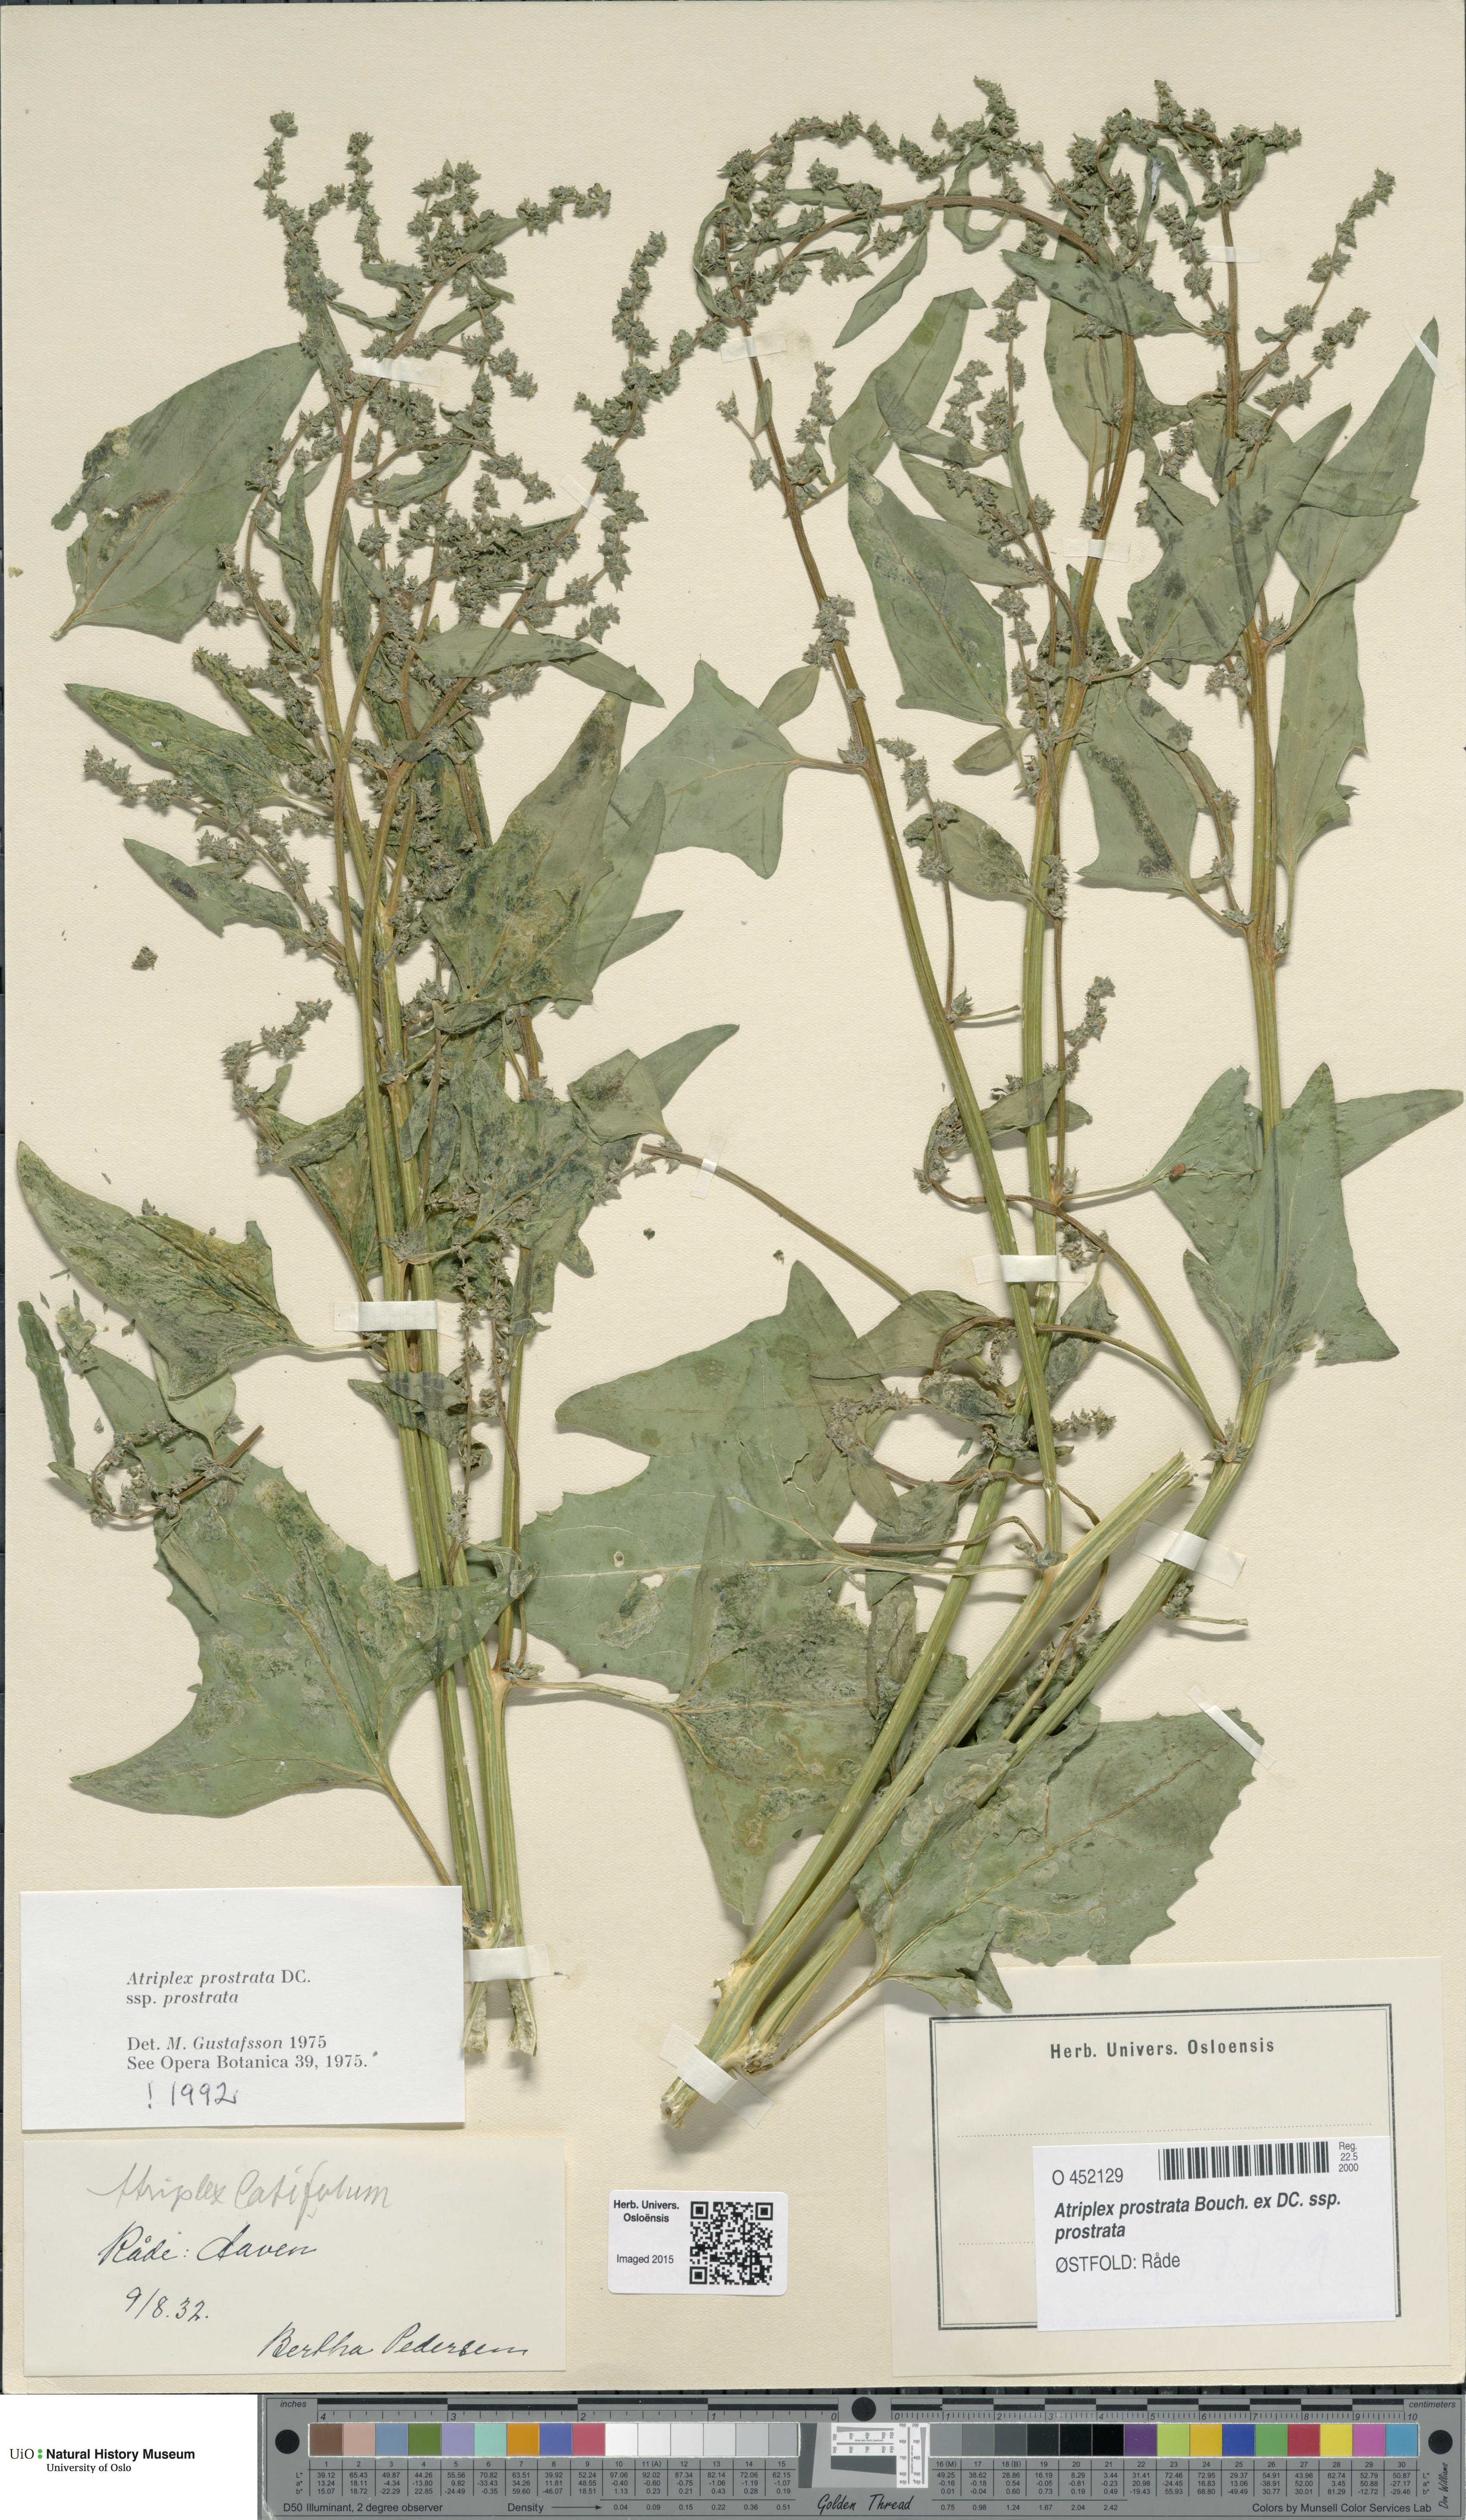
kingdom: Plantae
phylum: Tracheophyta
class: Magnoliopsida
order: Caryophyllales
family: Amaranthaceae
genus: Atriplex
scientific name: Atriplex prostrata
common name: Spear-leaved orache
